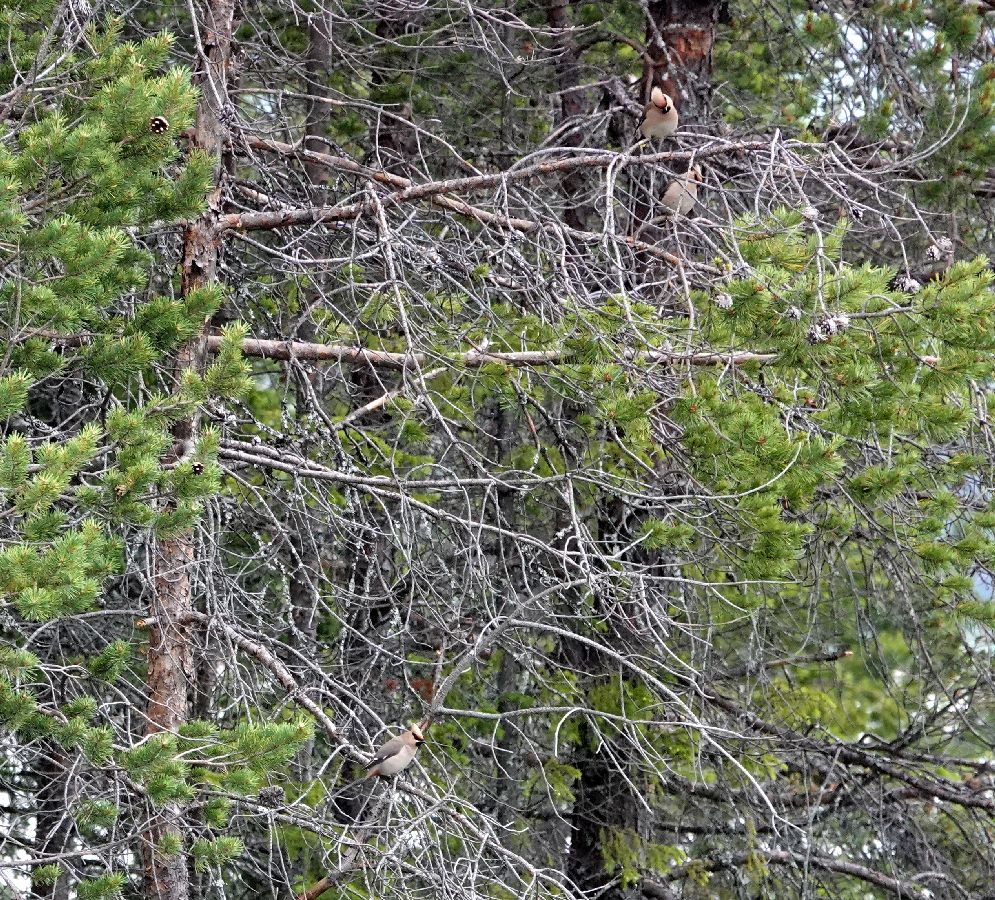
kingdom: Animalia
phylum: Chordata
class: Aves
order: Passeriformes
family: Bombycillidae
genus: Bombycilla
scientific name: Bombycilla garrulus
